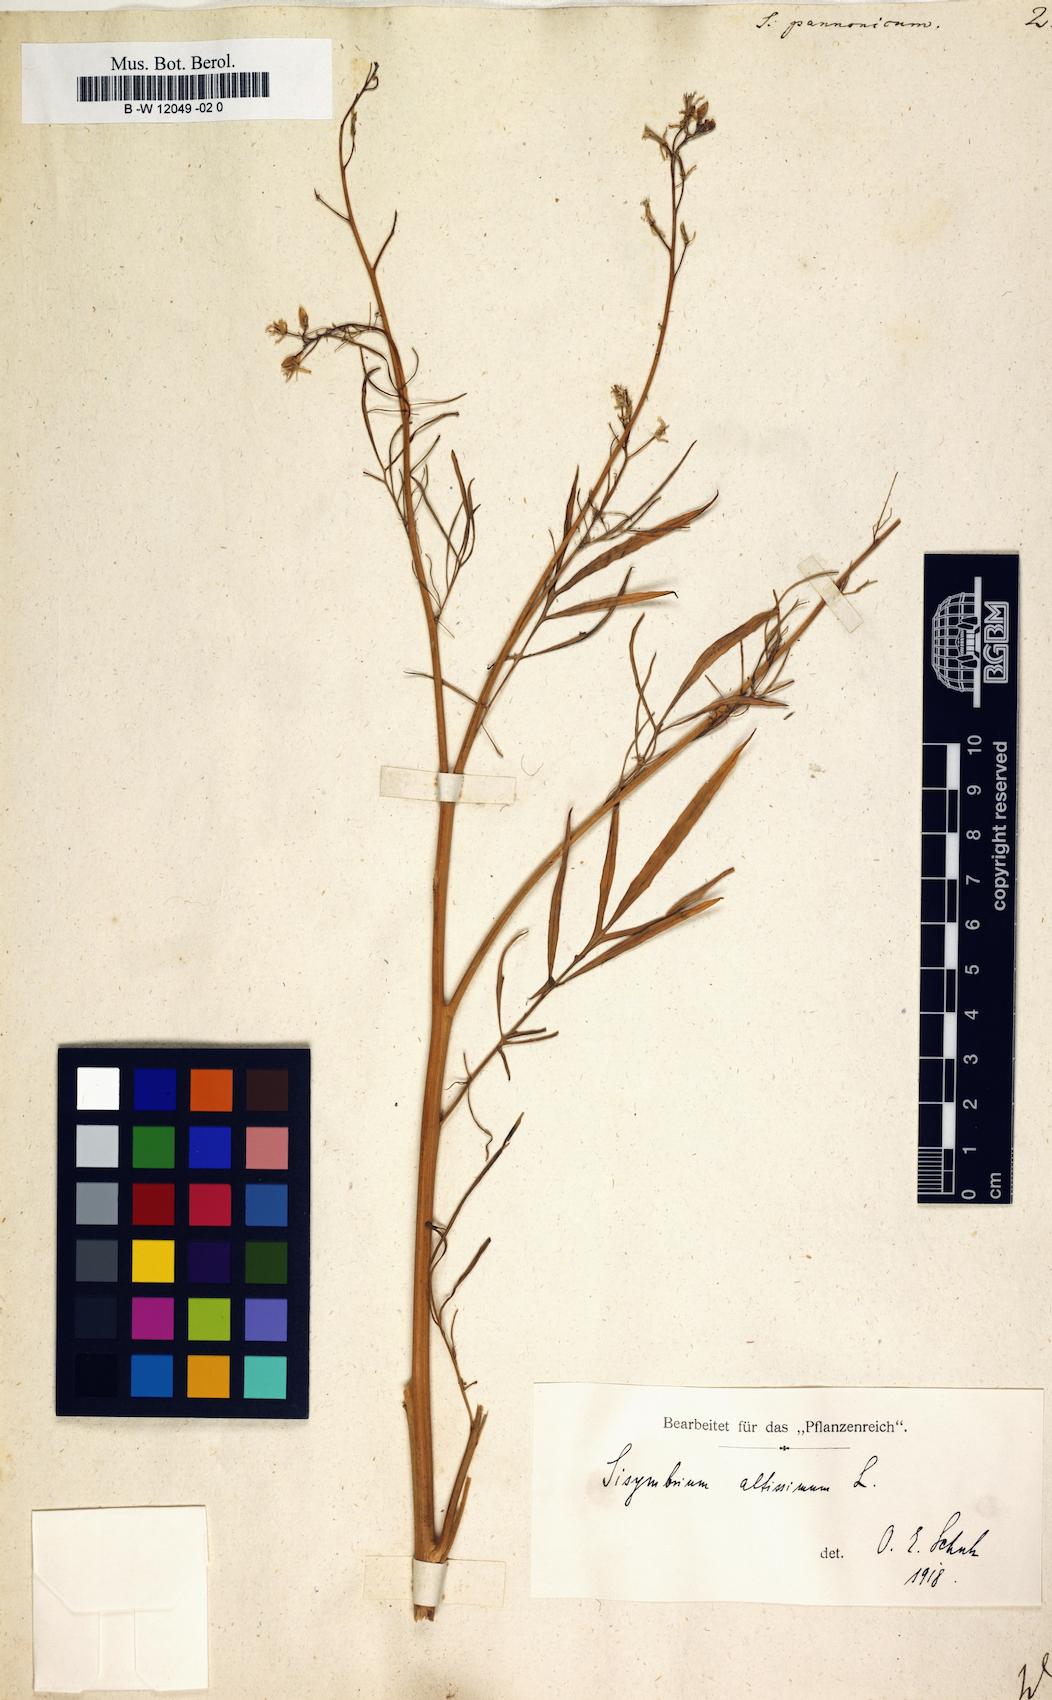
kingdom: Plantae
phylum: Tracheophyta
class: Magnoliopsida
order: Brassicales
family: Brassicaceae
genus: Sisymbrium
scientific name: Sisymbrium
